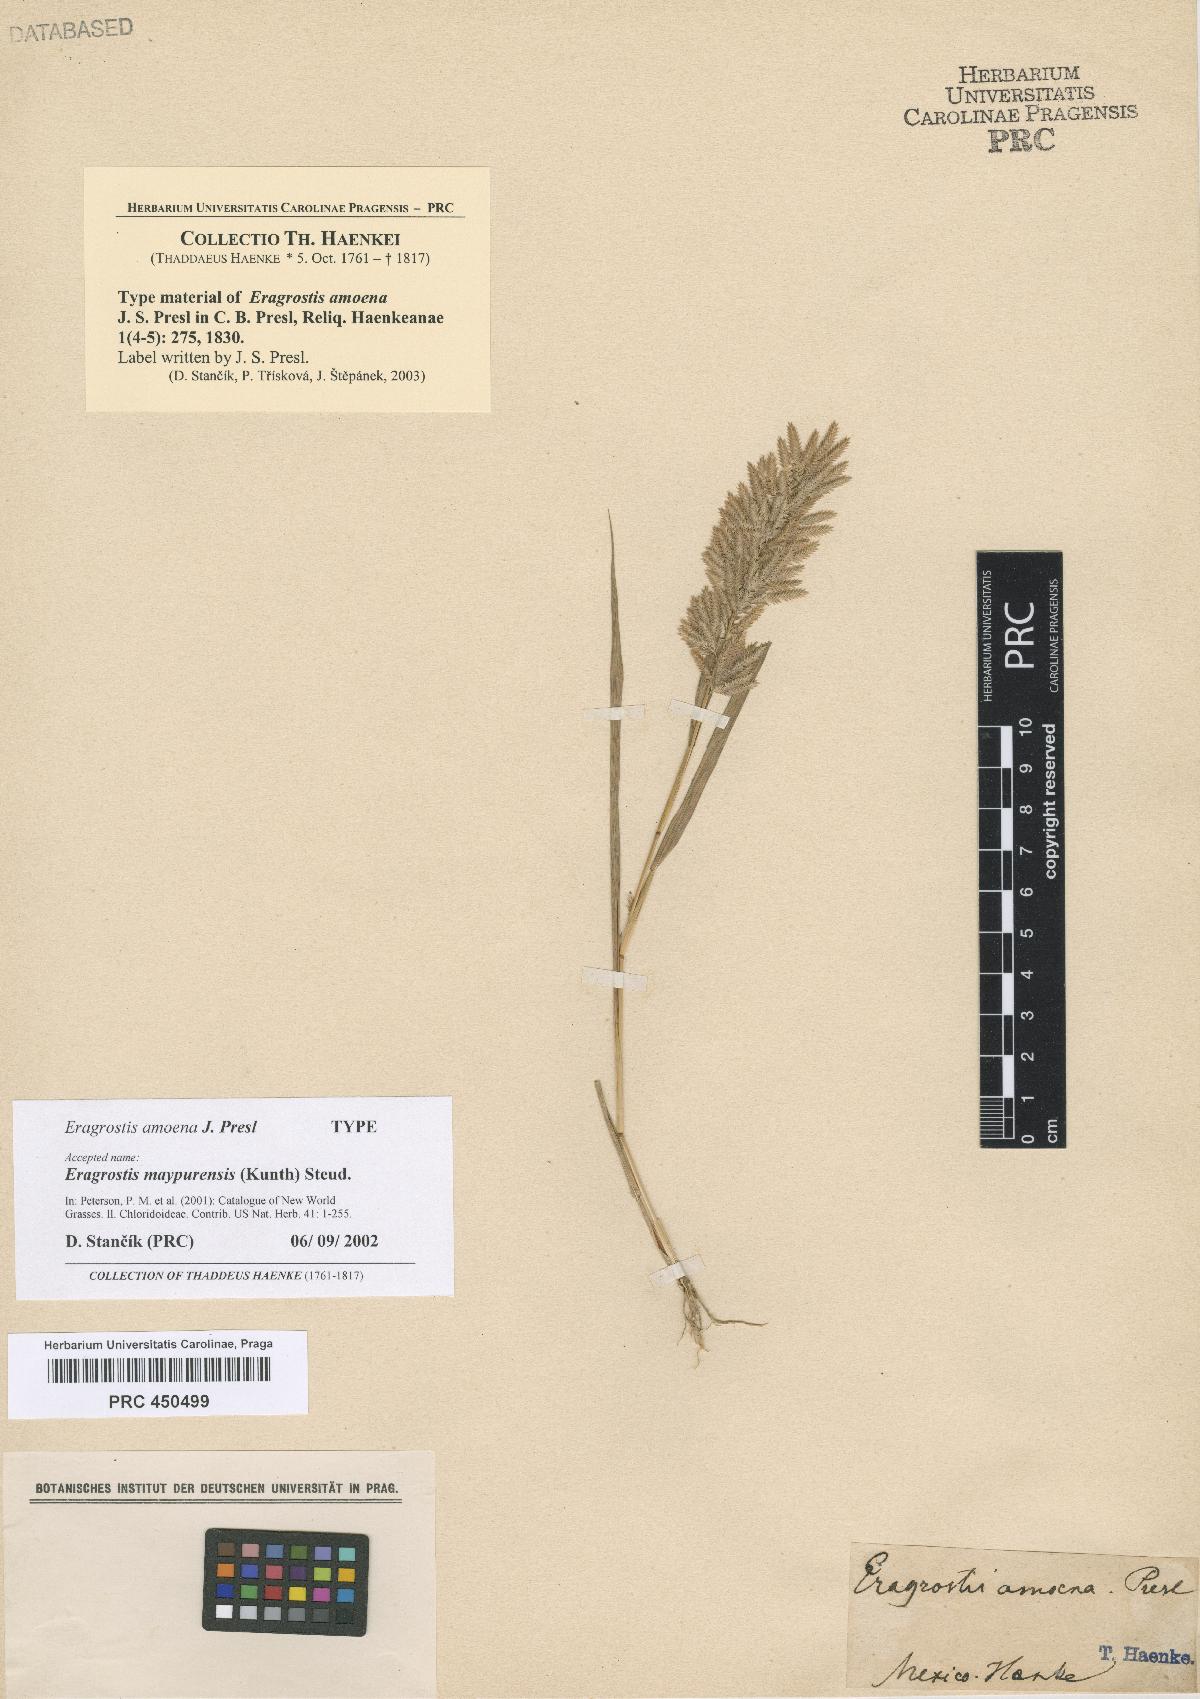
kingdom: Plantae
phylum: Tracheophyta
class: Liliopsida
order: Poales
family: Poaceae
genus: Eragrostis
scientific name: Eragrostis maypurensis
